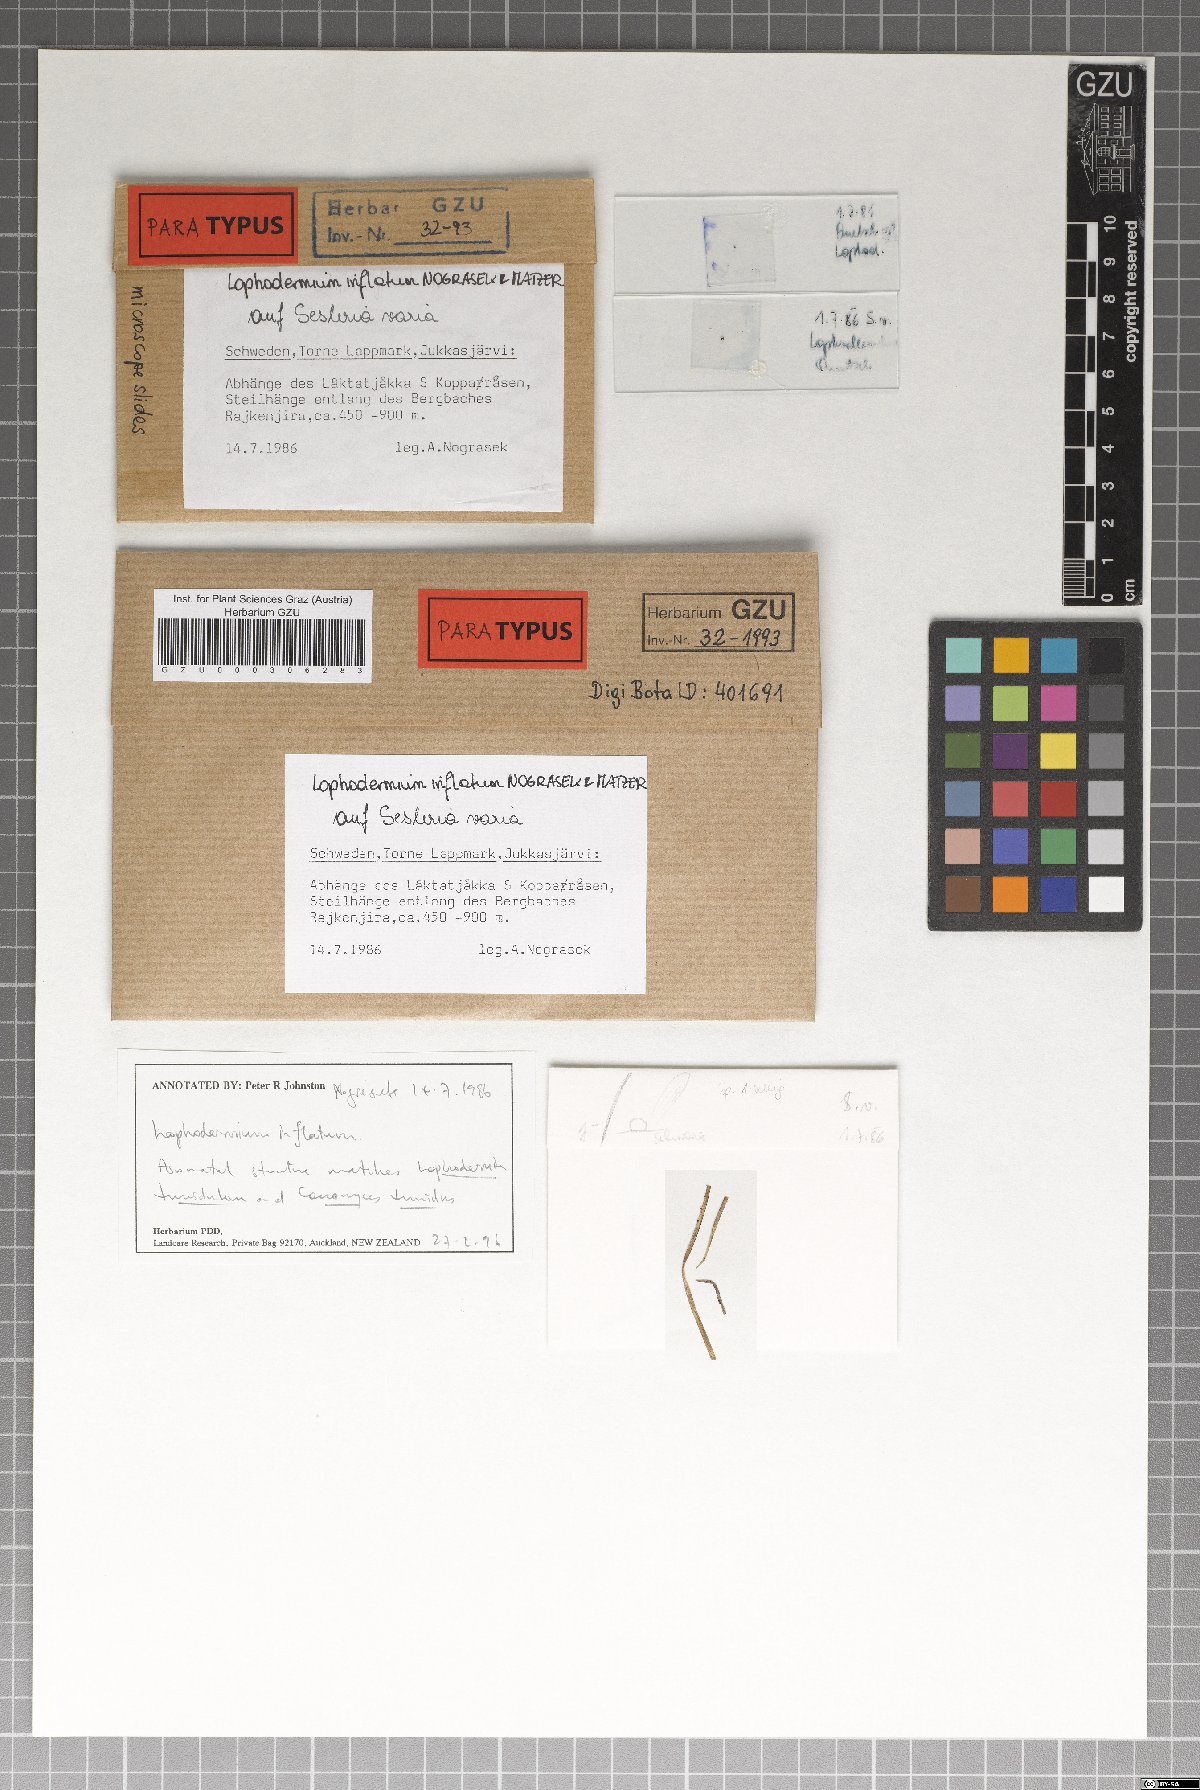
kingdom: Fungi
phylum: Ascomycota
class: Leotiomycetes
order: Rhytismatales
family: Rhytismataceae
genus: Lophodermium
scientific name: Lophodermium inflatum
